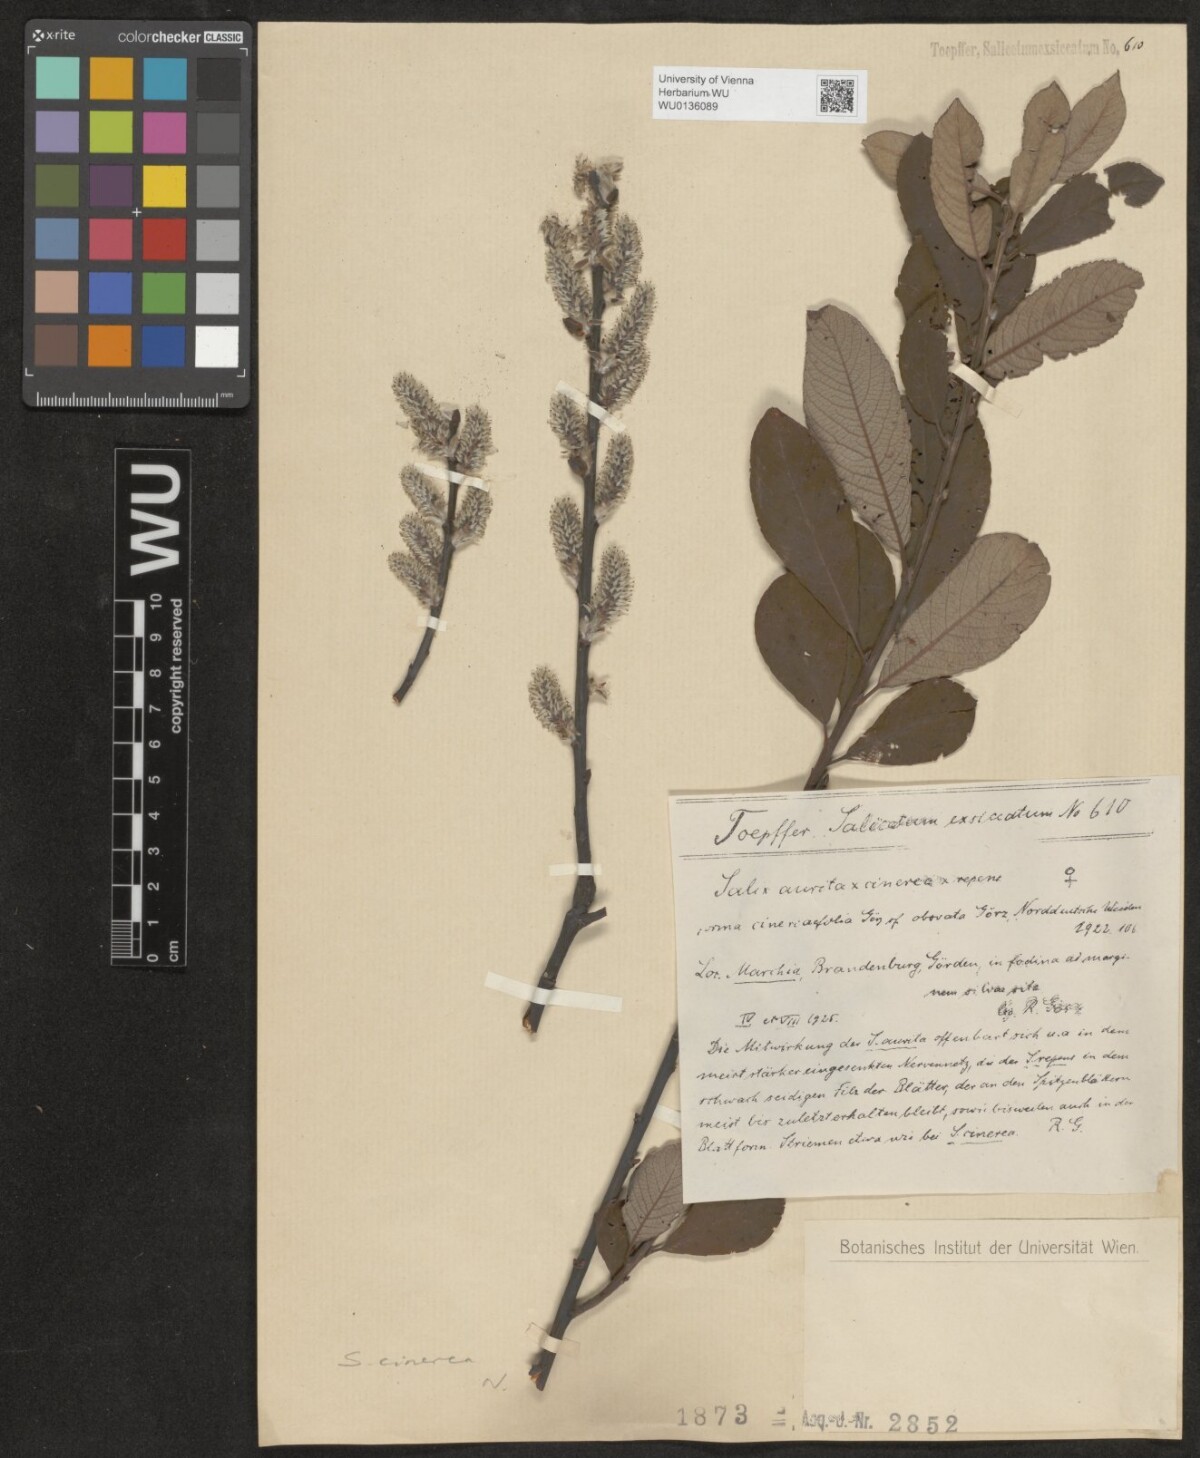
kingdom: Plantae
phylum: Tracheophyta
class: Magnoliopsida
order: Malpighiales
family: Salicaceae
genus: Salix
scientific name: Salix cinerea
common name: Common sallow
